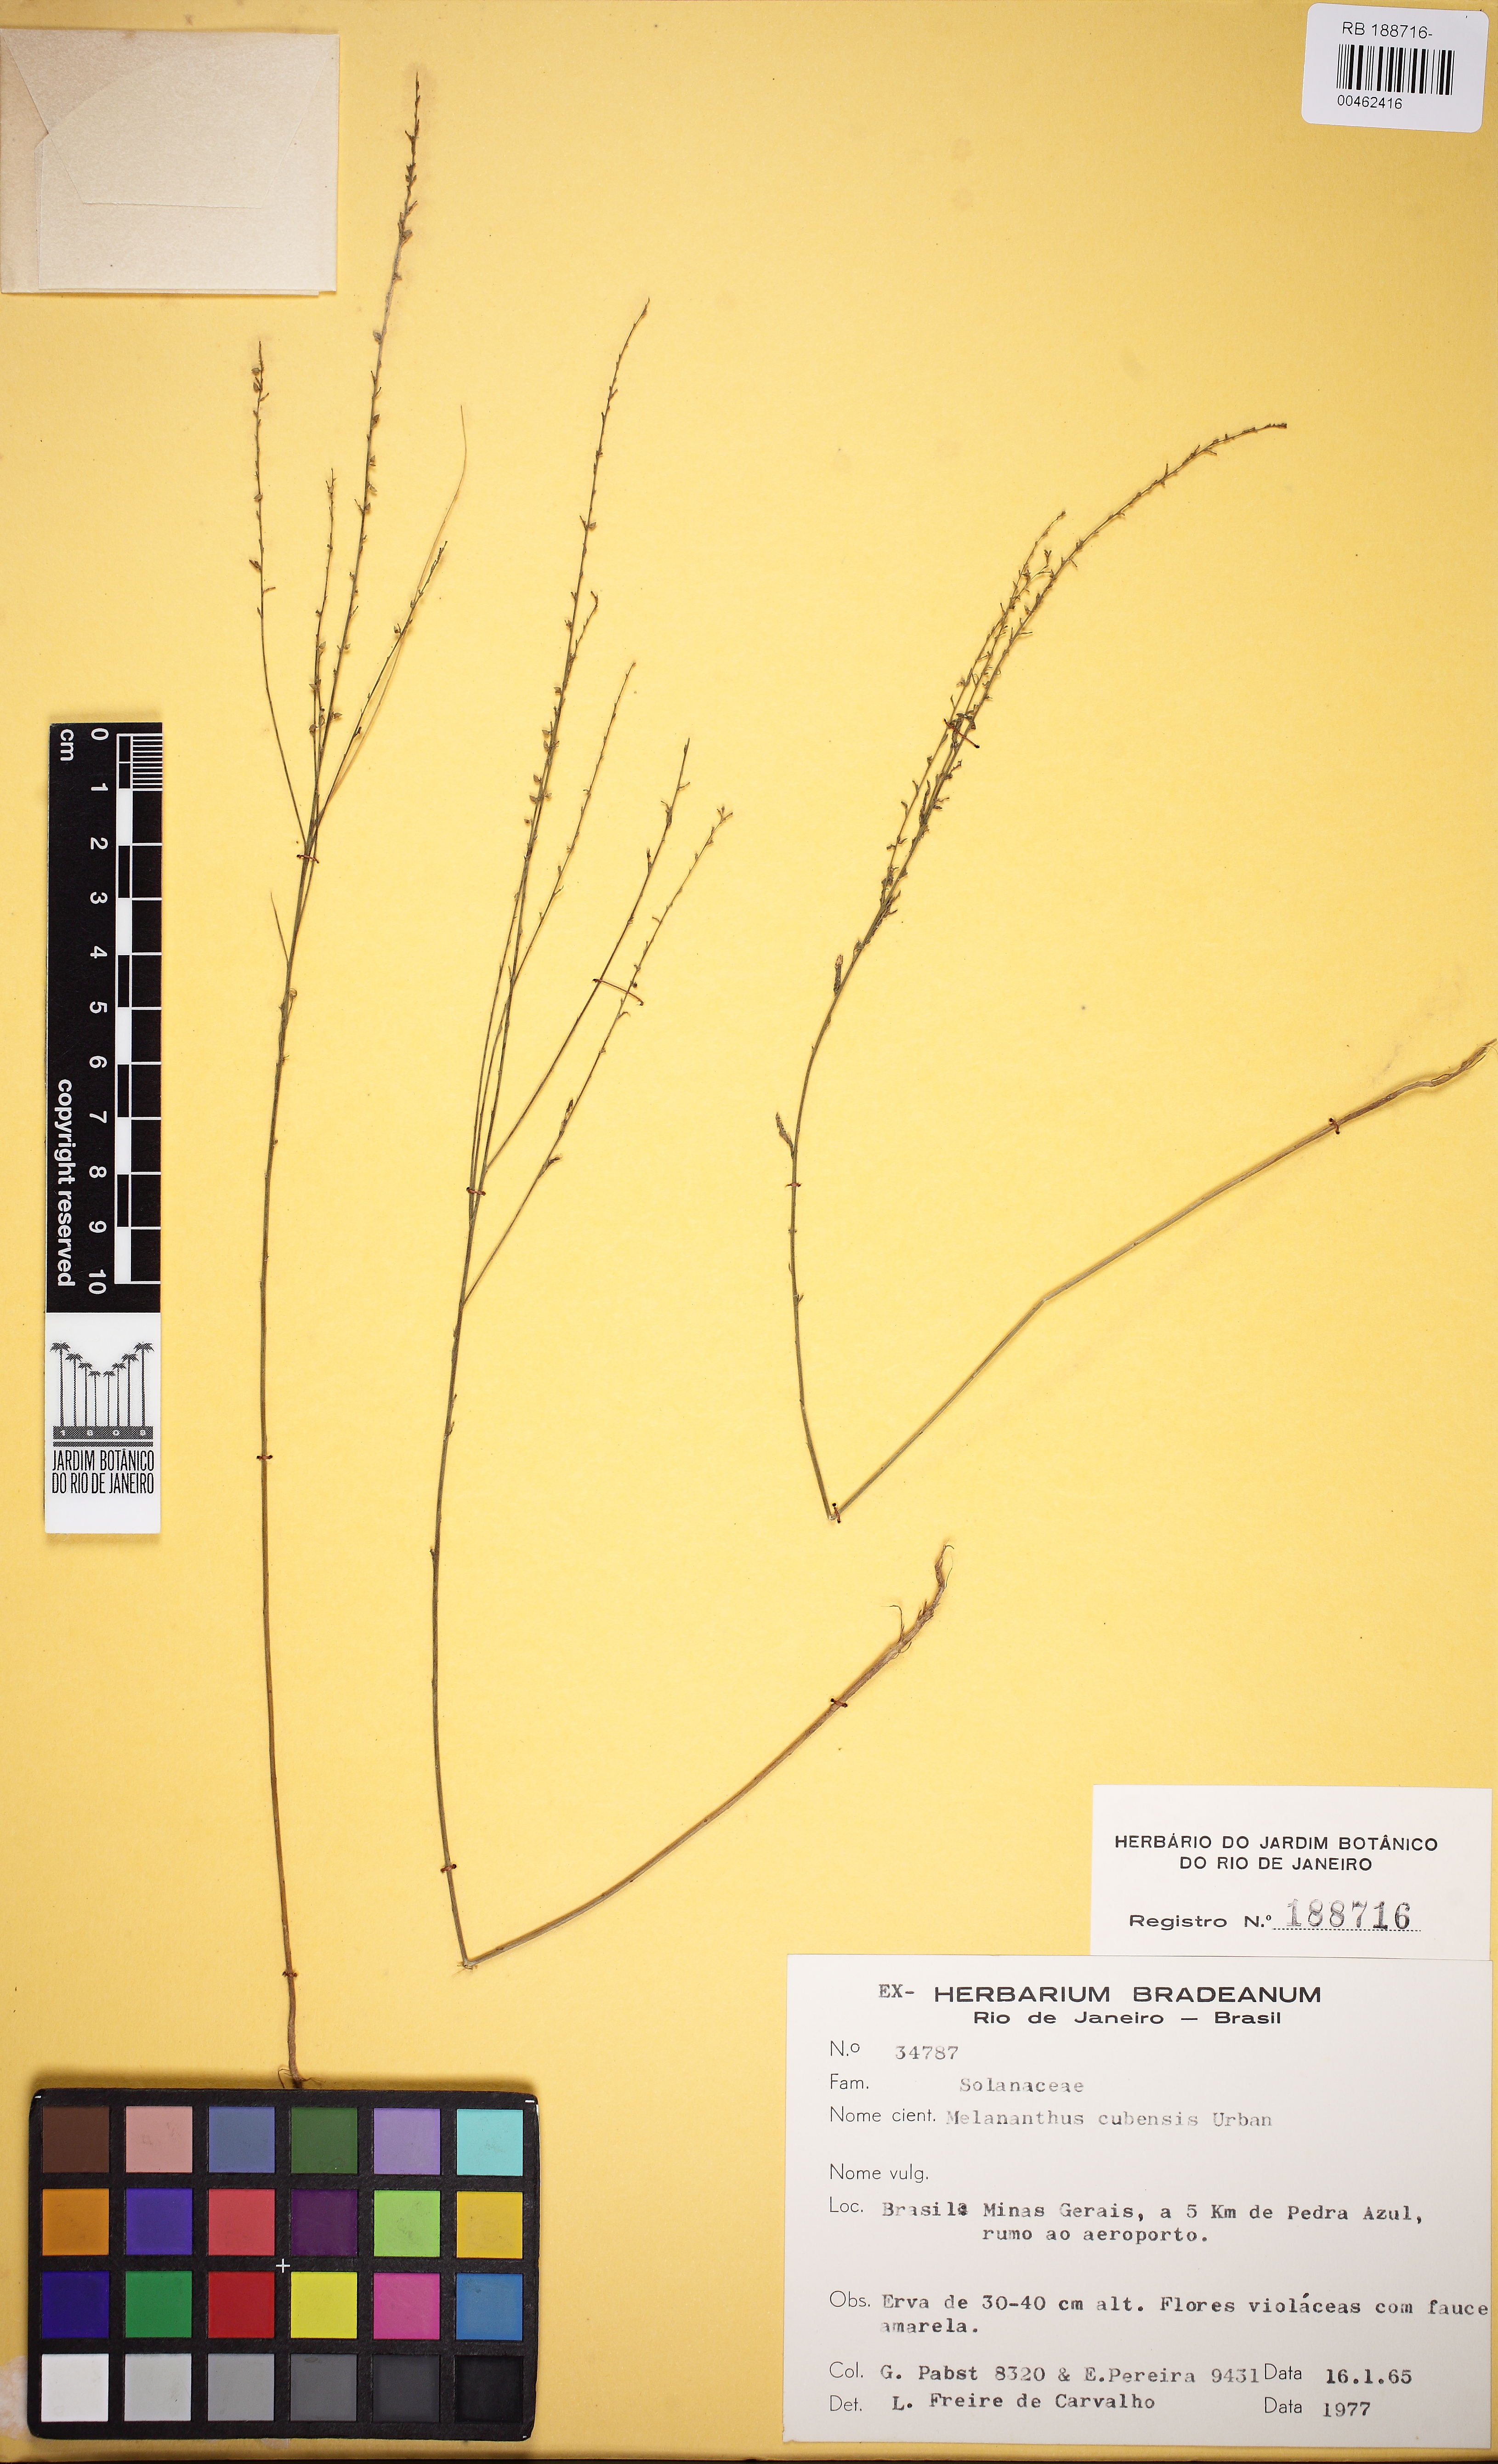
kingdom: Plantae
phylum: Tracheophyta
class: Magnoliopsida
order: Solanales
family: Solanaceae
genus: Melananthus
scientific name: Melananthus cubensis
